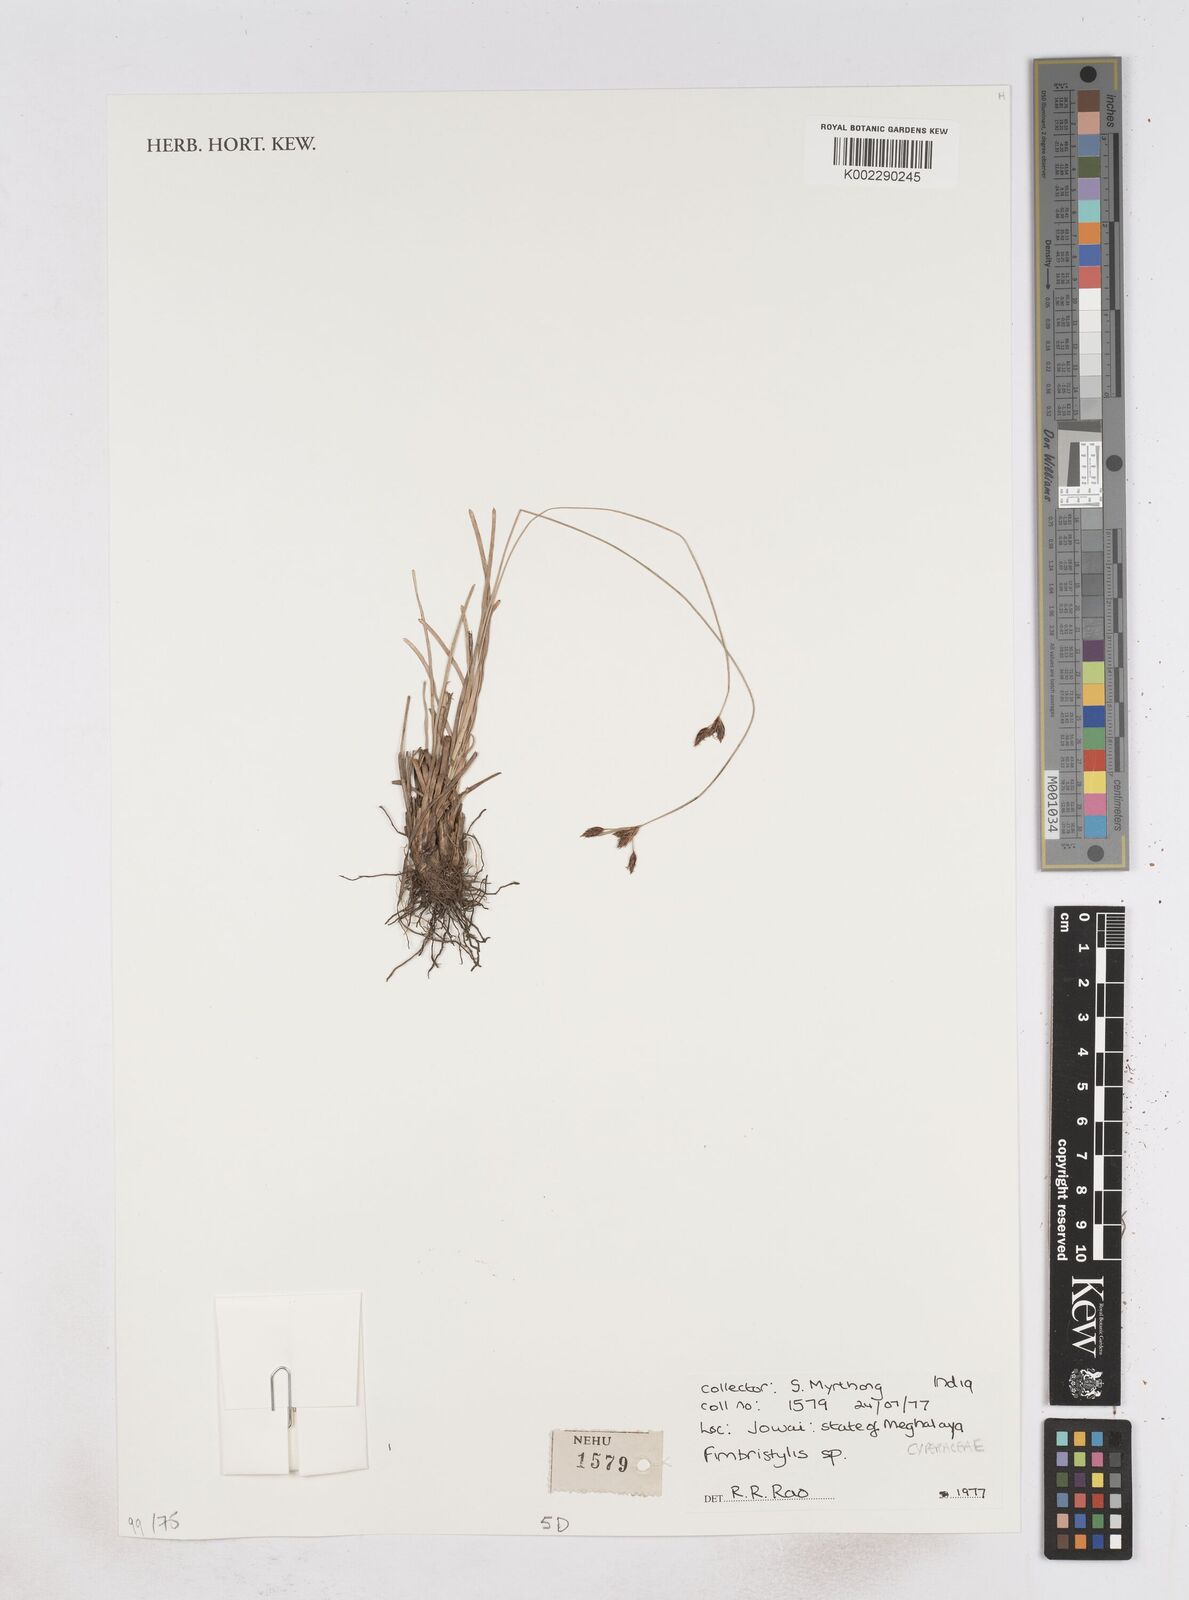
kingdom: Plantae
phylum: Tracheophyta
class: Liliopsida
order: Poales
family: Cyperaceae
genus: Fimbristylis
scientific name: Fimbristylis
